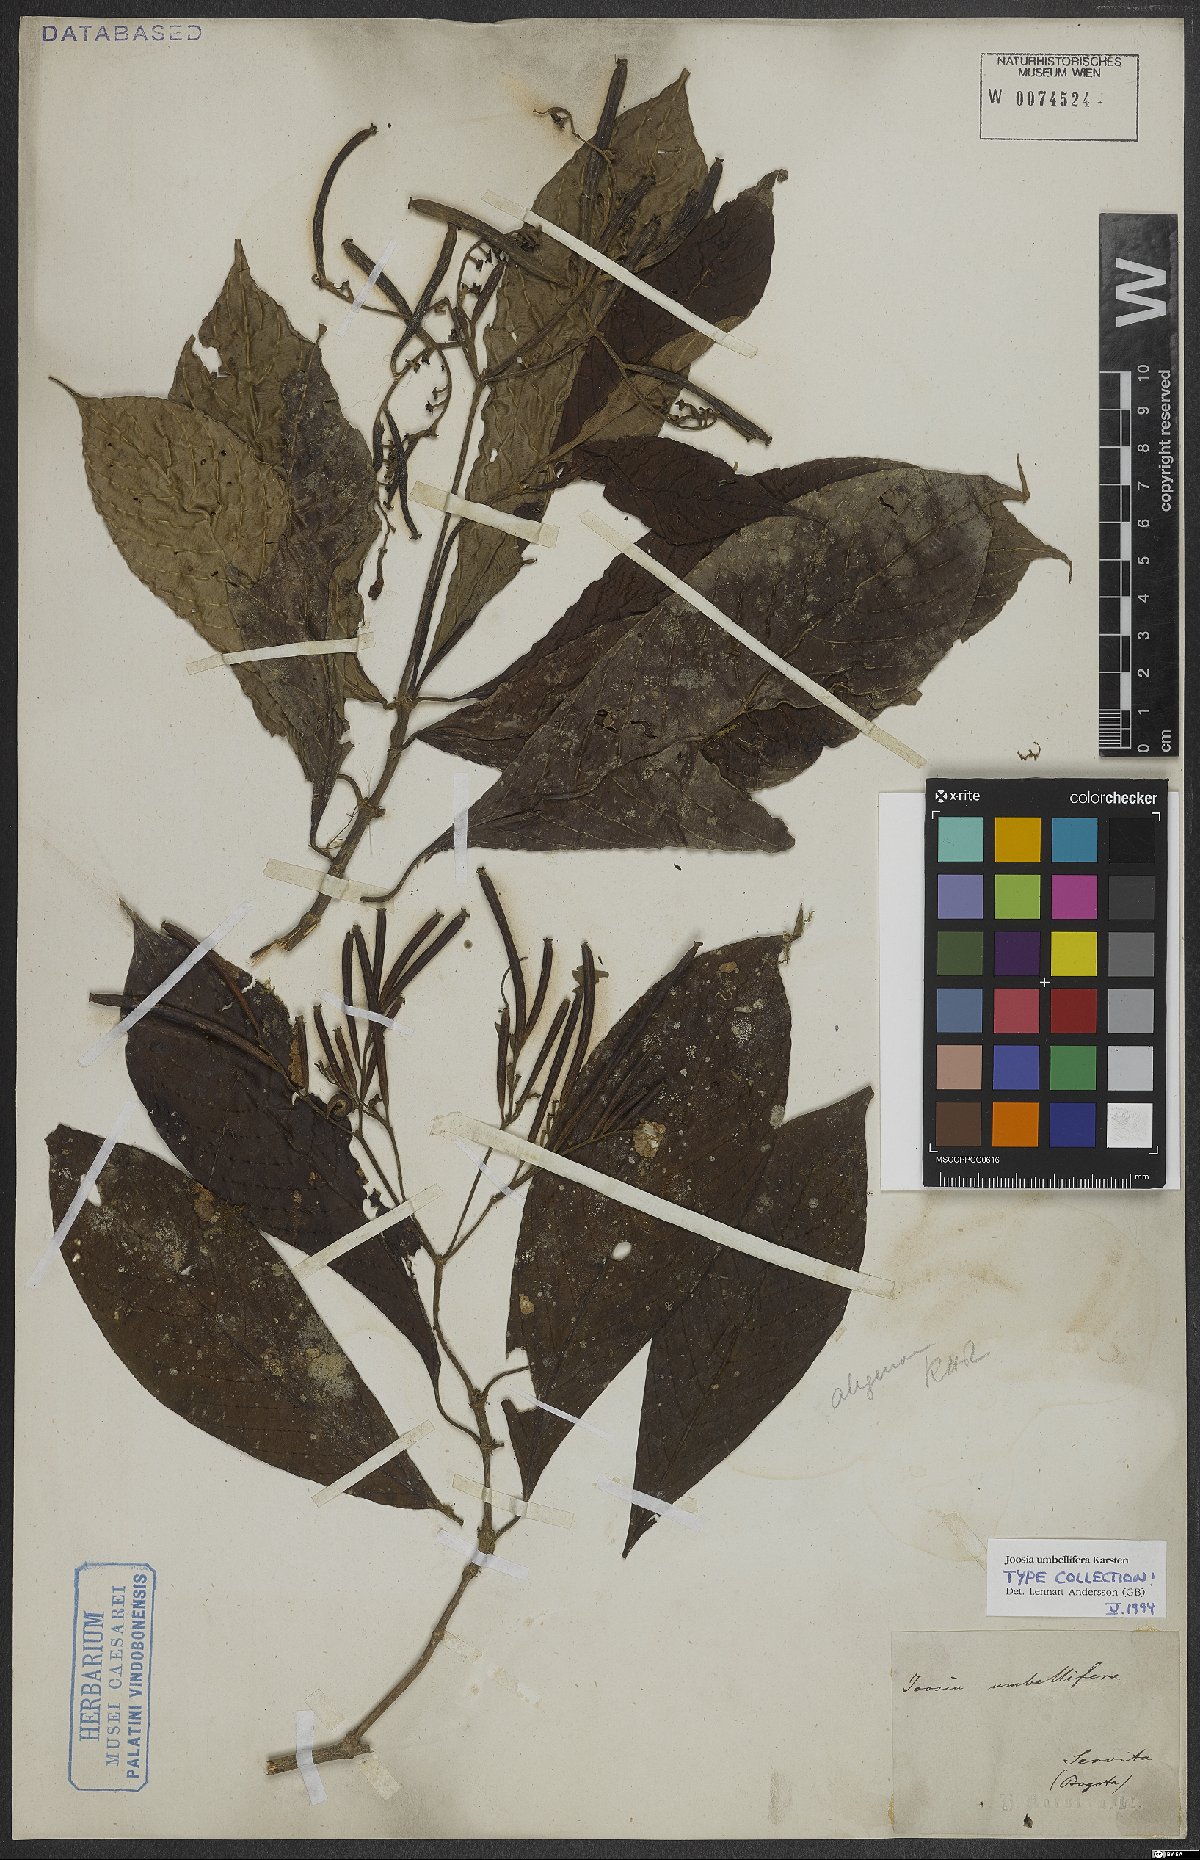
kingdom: Plantae
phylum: Tracheophyta
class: Magnoliopsida
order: Gentianales
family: Rubiaceae
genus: Joosia
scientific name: Joosia umbellifera
